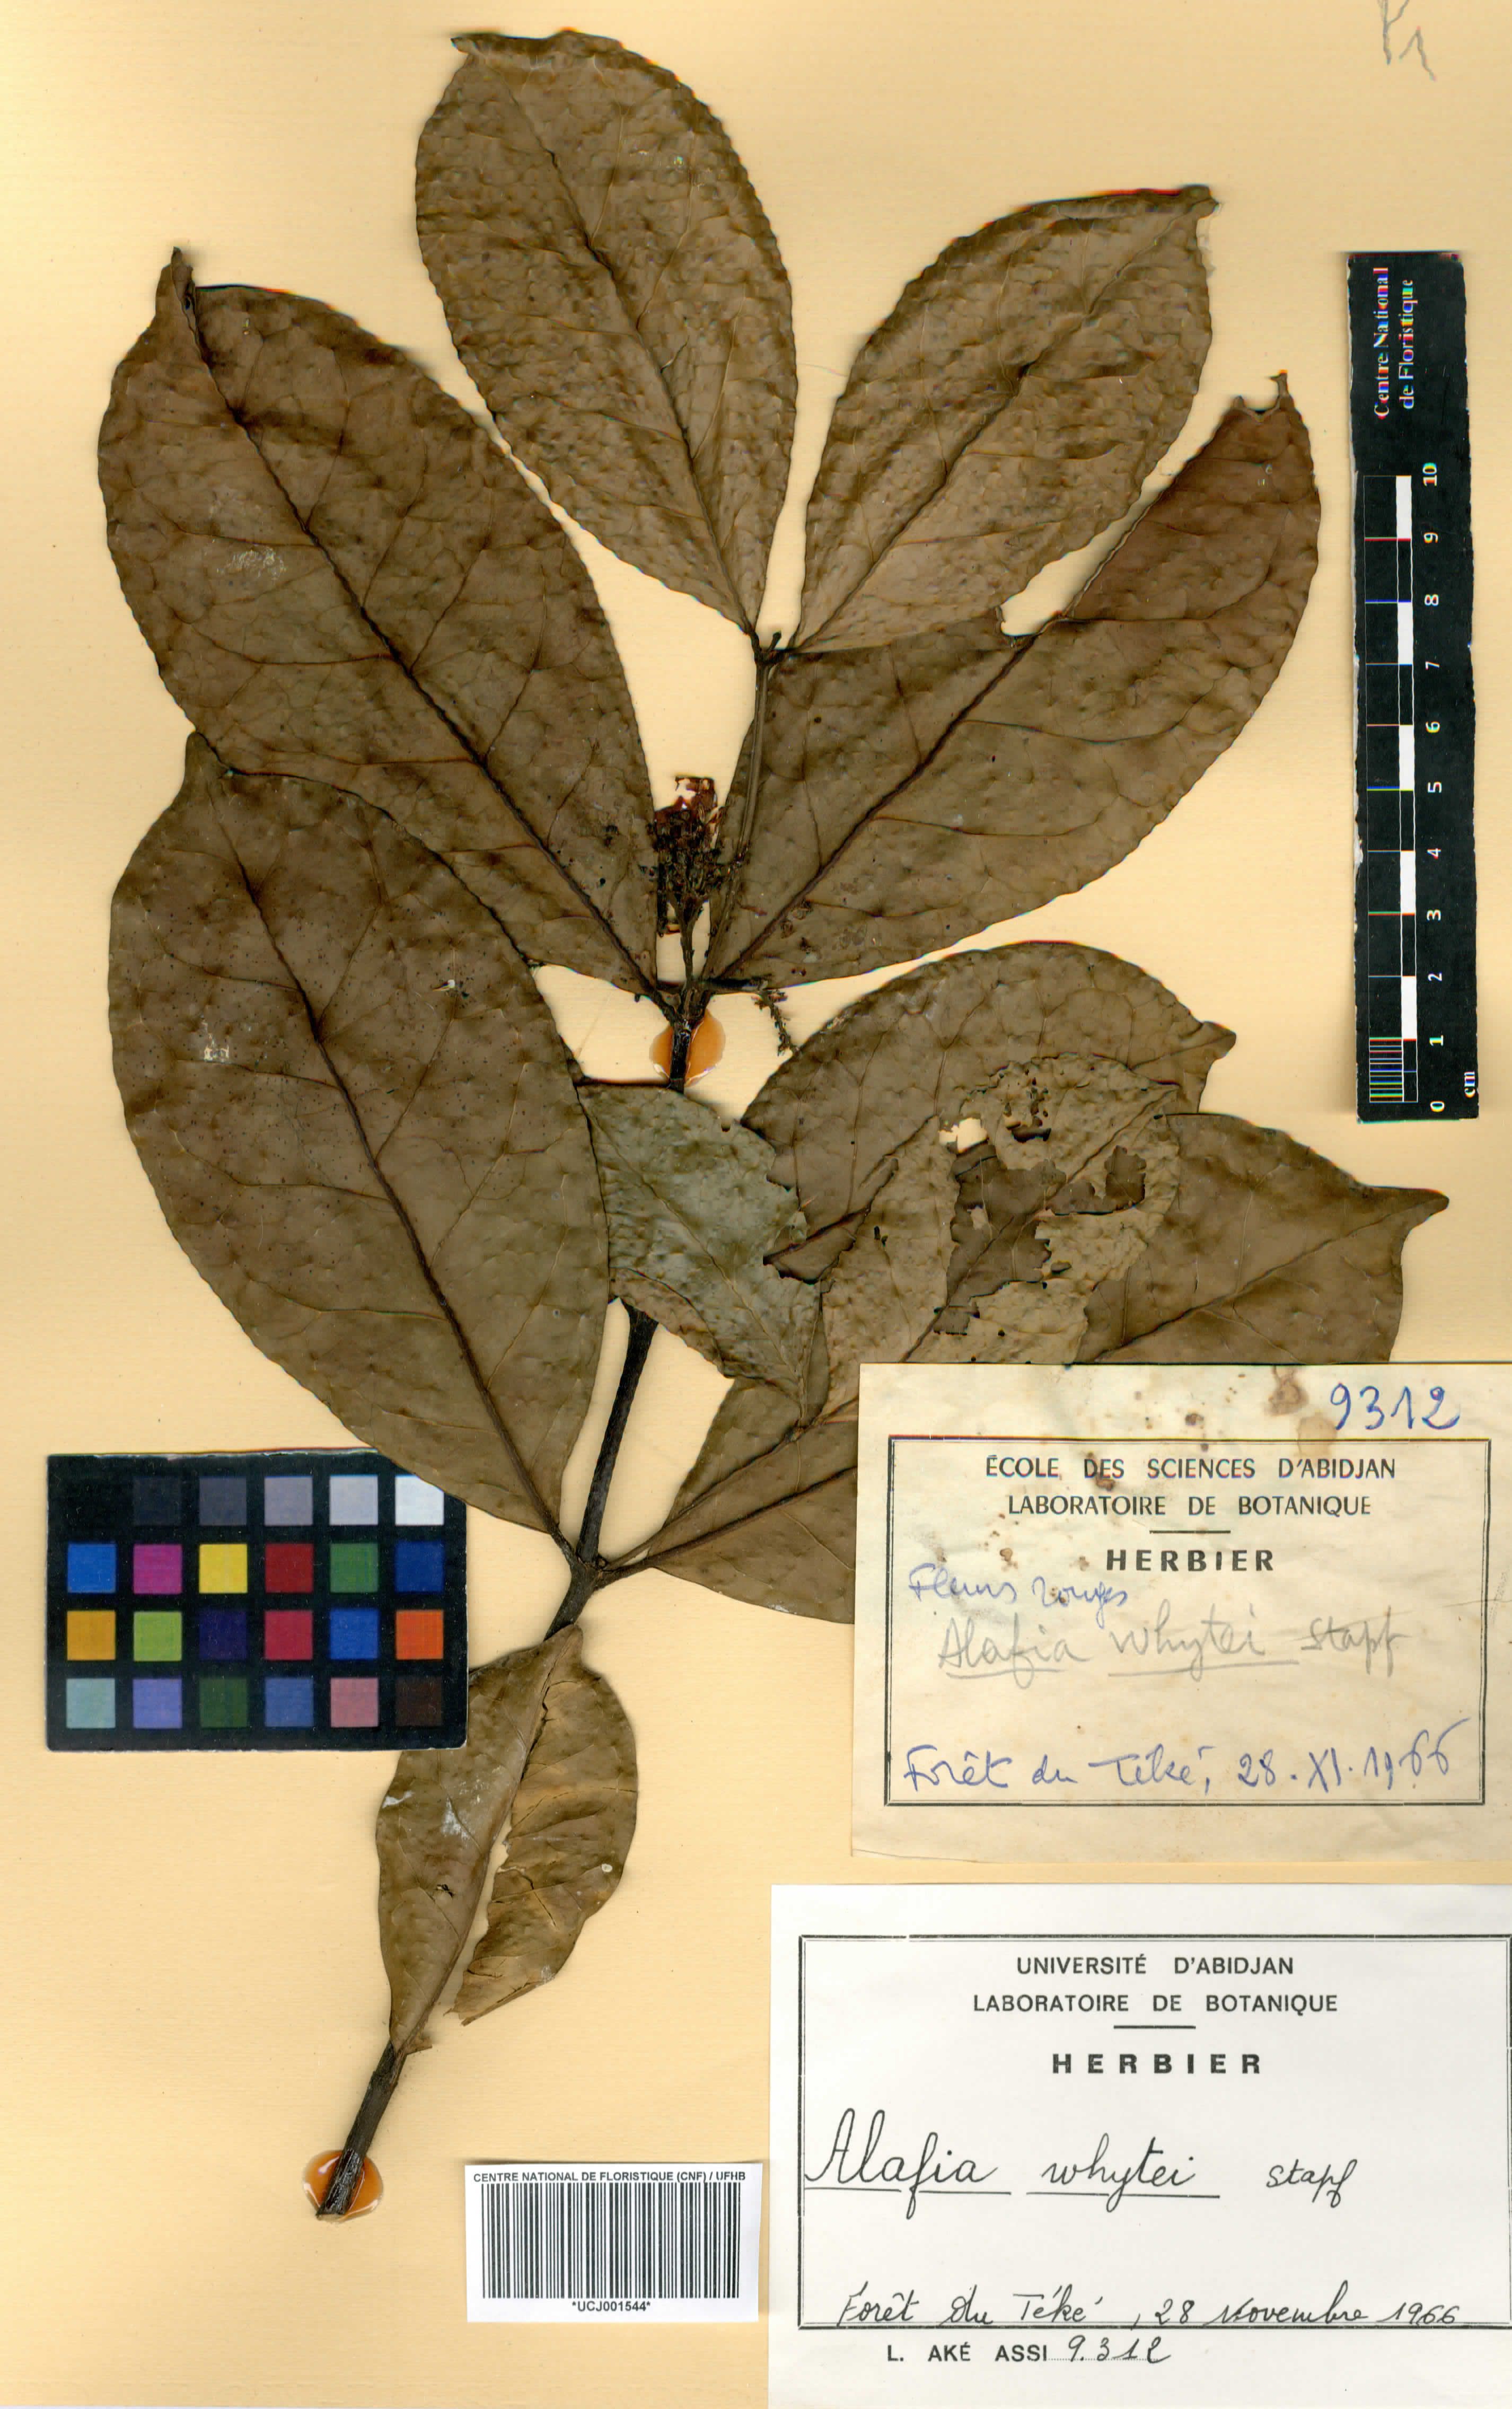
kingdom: Plantae
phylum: Tracheophyta
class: Magnoliopsida
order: Gentianales
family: Apocynaceae
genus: Alafia
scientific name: Alafia whytei
